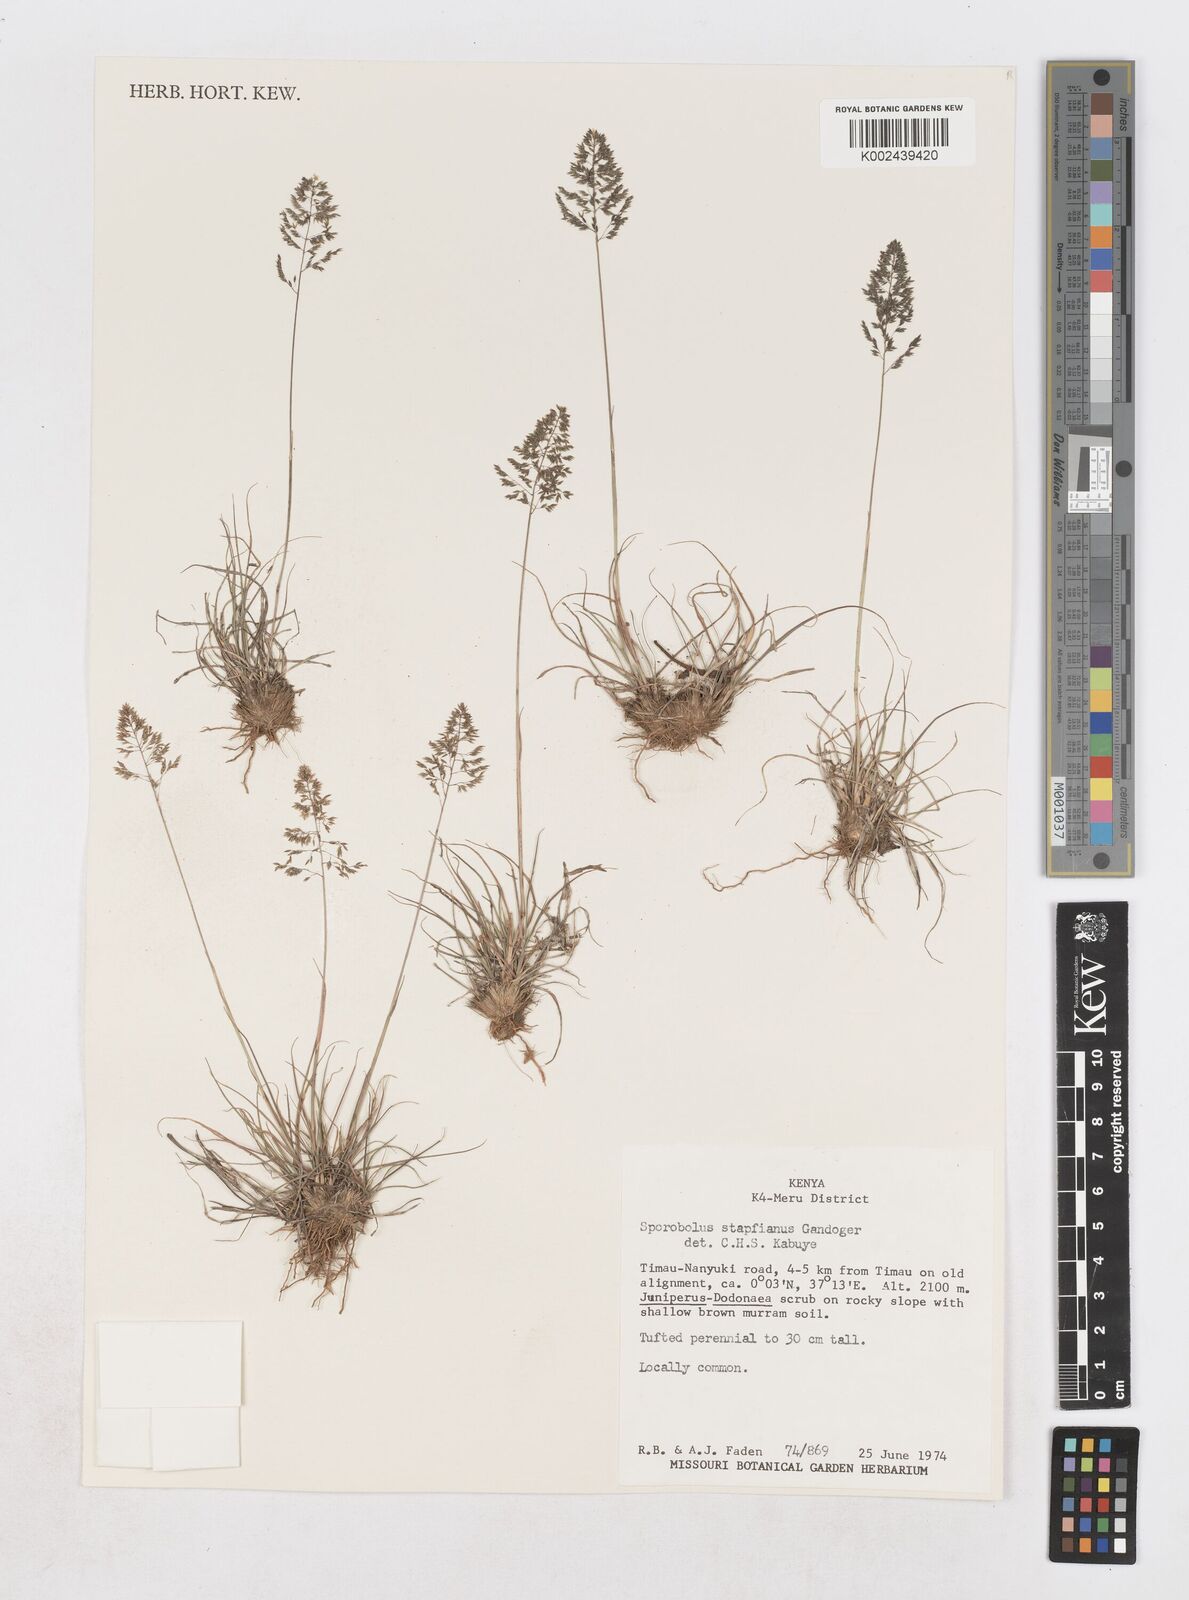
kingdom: Plantae
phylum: Tracheophyta
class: Liliopsida
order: Poales
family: Poaceae
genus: Sporobolus
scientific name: Sporobolus stapfianus
